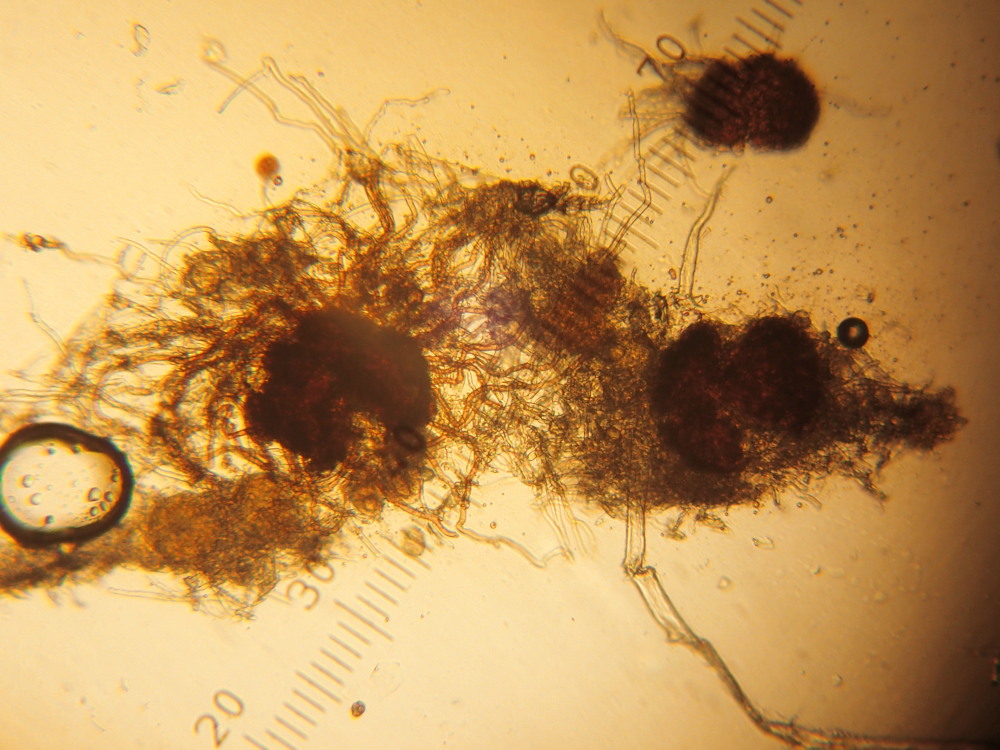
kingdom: Fungi
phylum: Ascomycota
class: Leotiomycetes
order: Helotiales
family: Erysiphaceae
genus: Erysiphe
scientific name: Erysiphe aquilegiae
